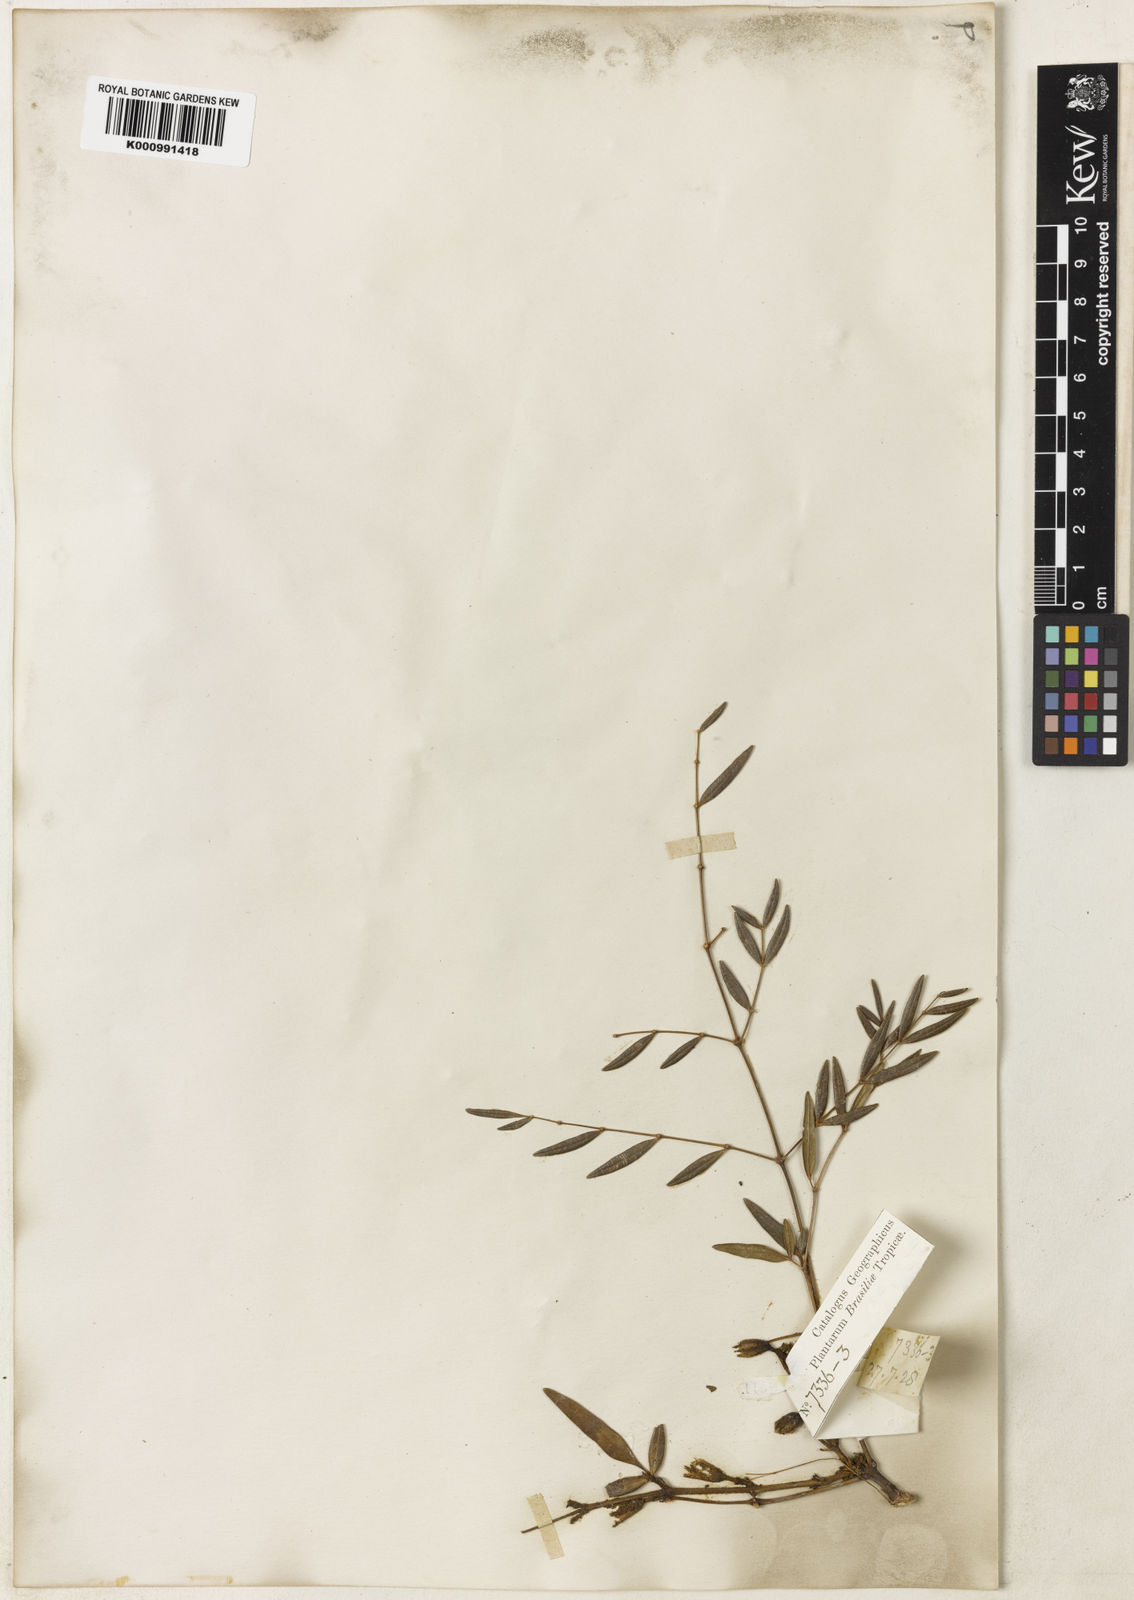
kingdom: Plantae
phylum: Tracheophyta
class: Magnoliopsida
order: Lamiales
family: Bignoniaceae
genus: Adenocalymma
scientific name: Adenocalymma nodosum
